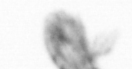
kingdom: Animalia
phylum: Arthropoda
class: Copepoda
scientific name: Copepoda
